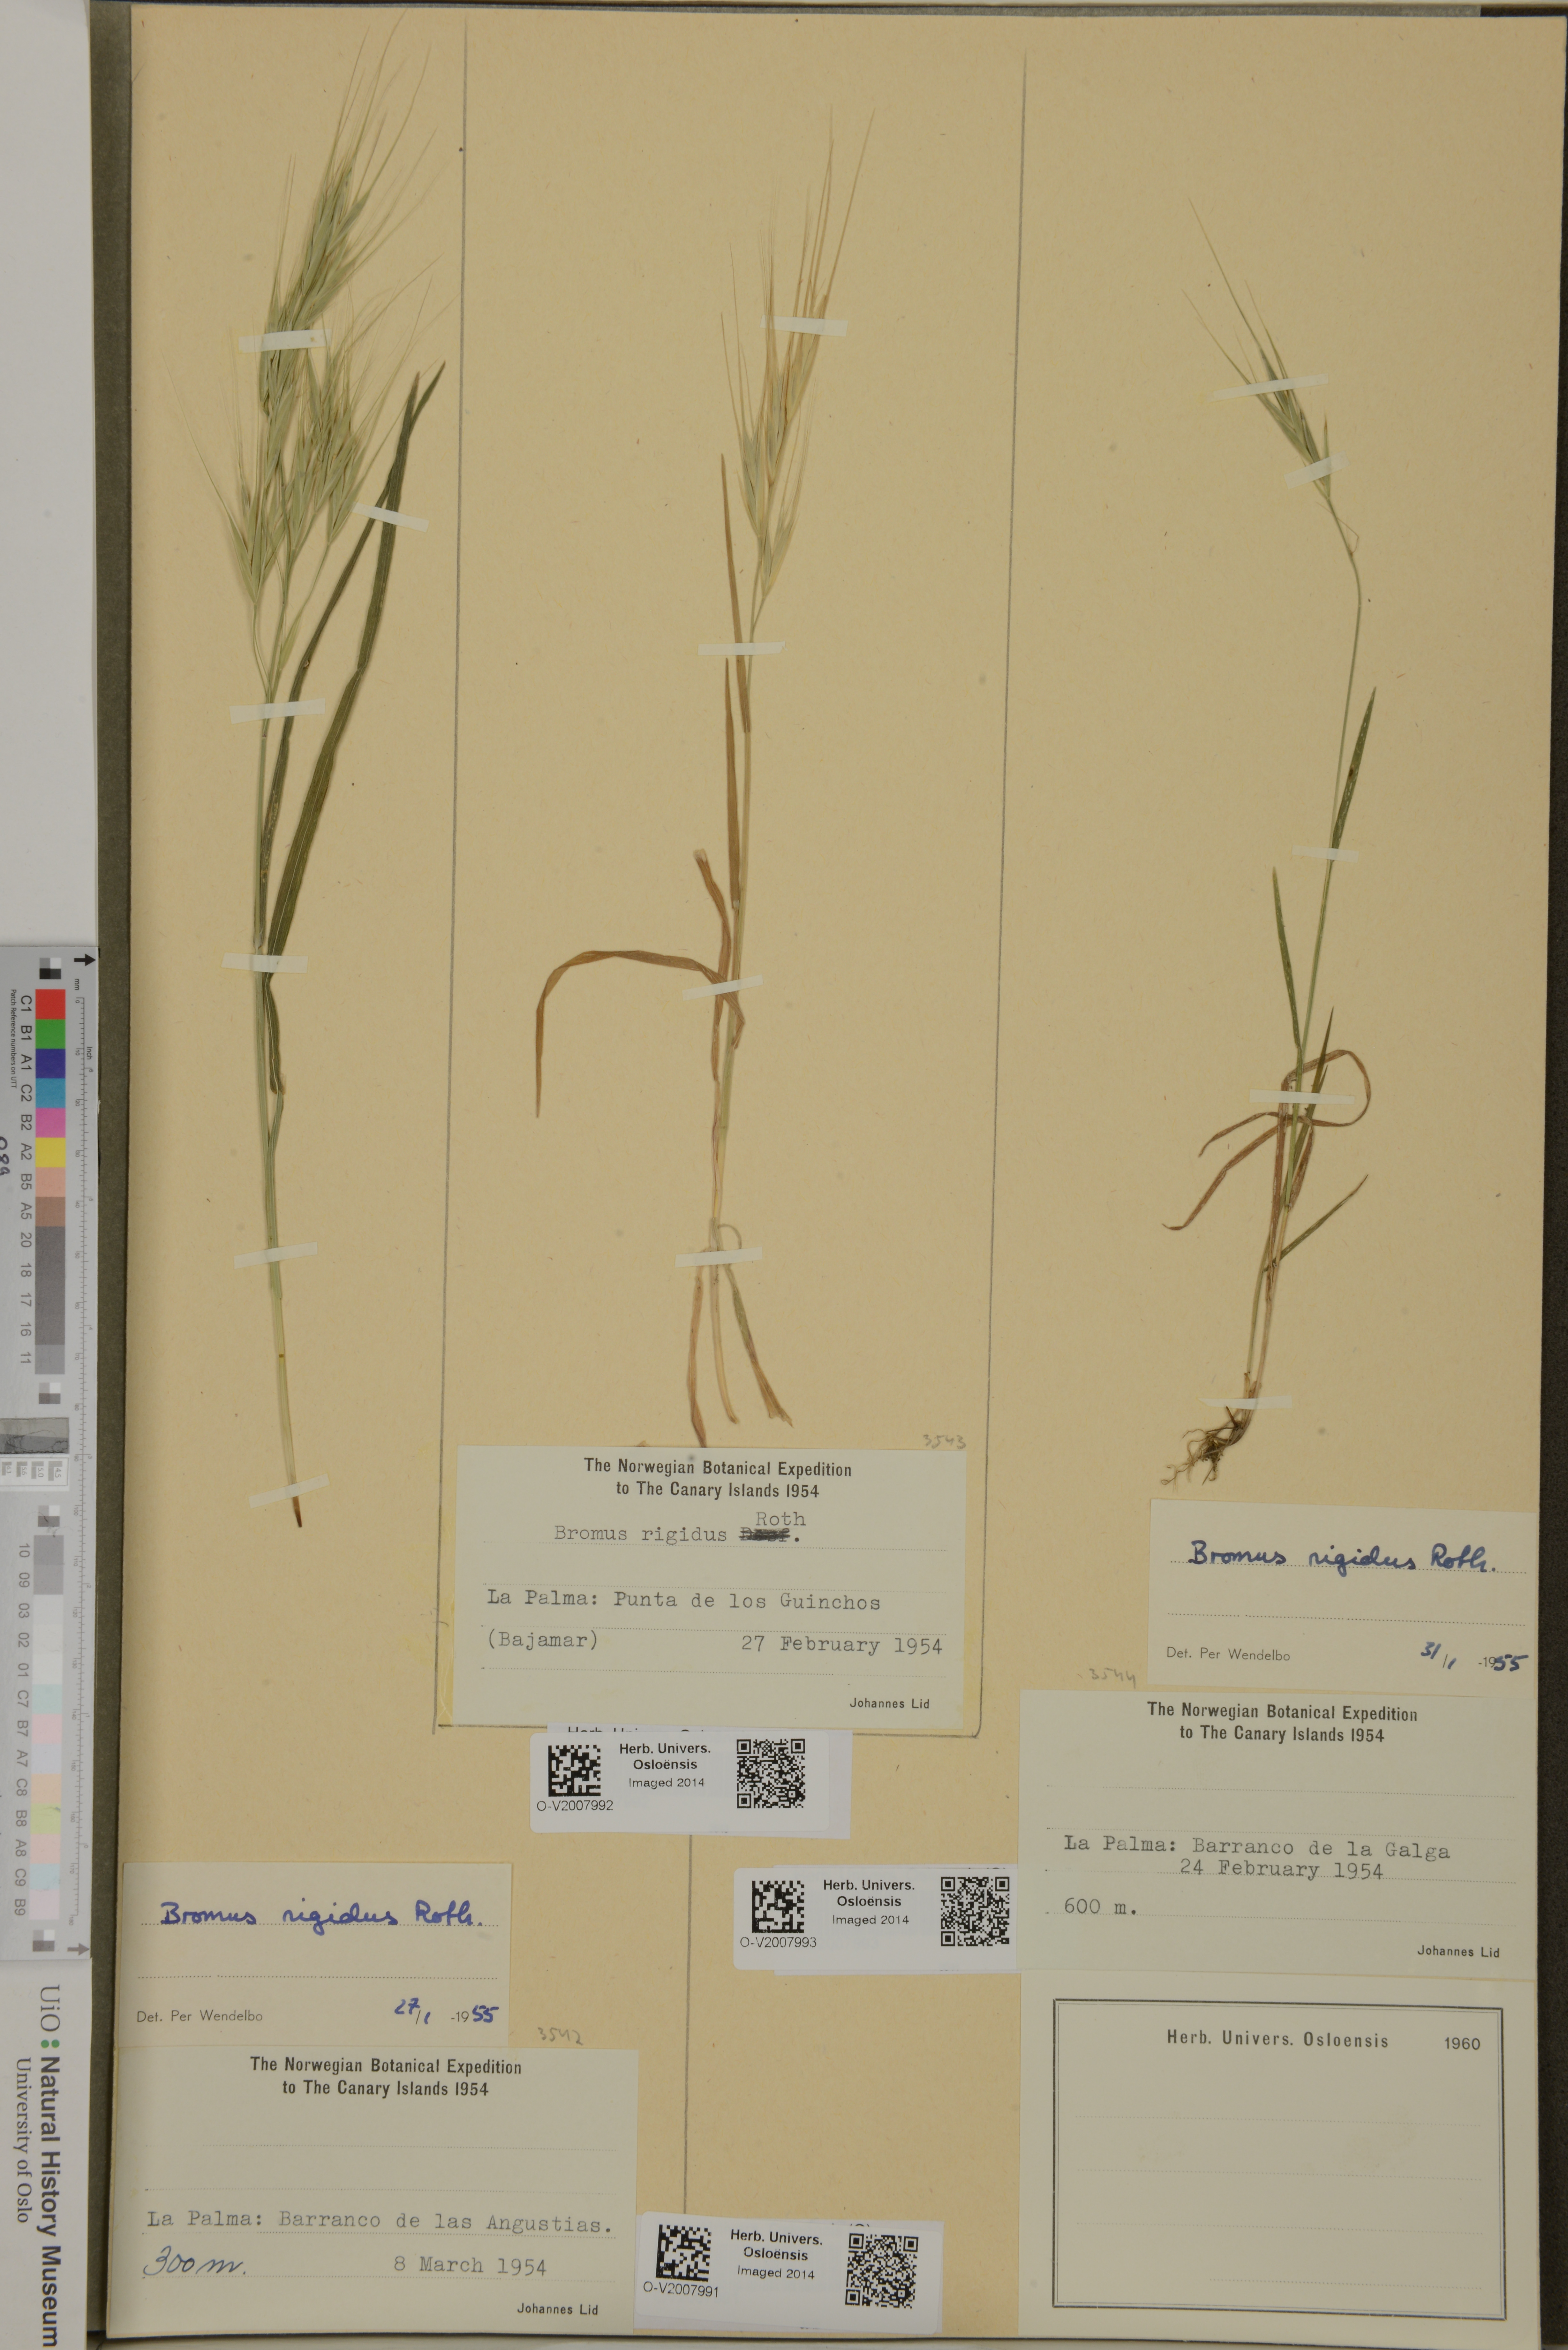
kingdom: Plantae
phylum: Tracheophyta
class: Liliopsida
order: Poales
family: Poaceae
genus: Bromus
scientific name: Bromus rigidus
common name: Ripgut brome
